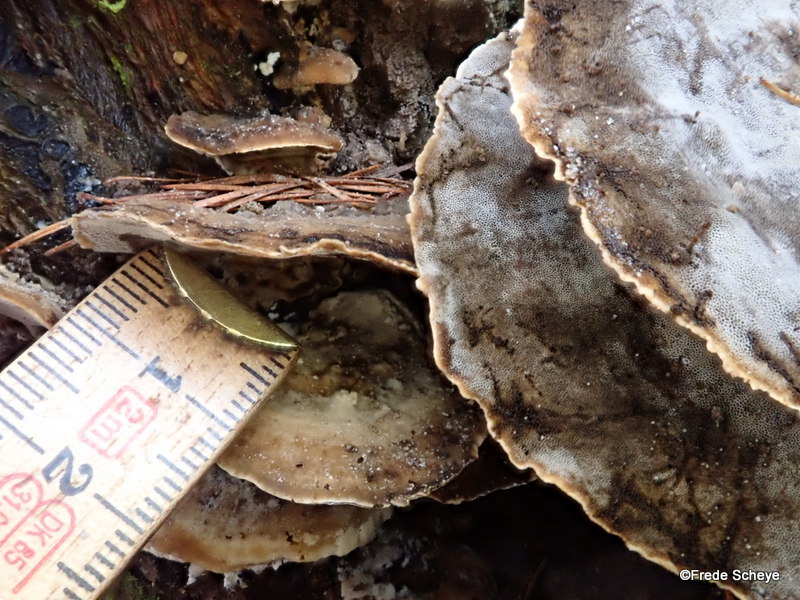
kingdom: Fungi
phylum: Basidiomycota
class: Agaricomycetes
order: Polyporales
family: Phanerochaetaceae
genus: Bjerkandera
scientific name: Bjerkandera adusta
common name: sveden sodporesvamp
